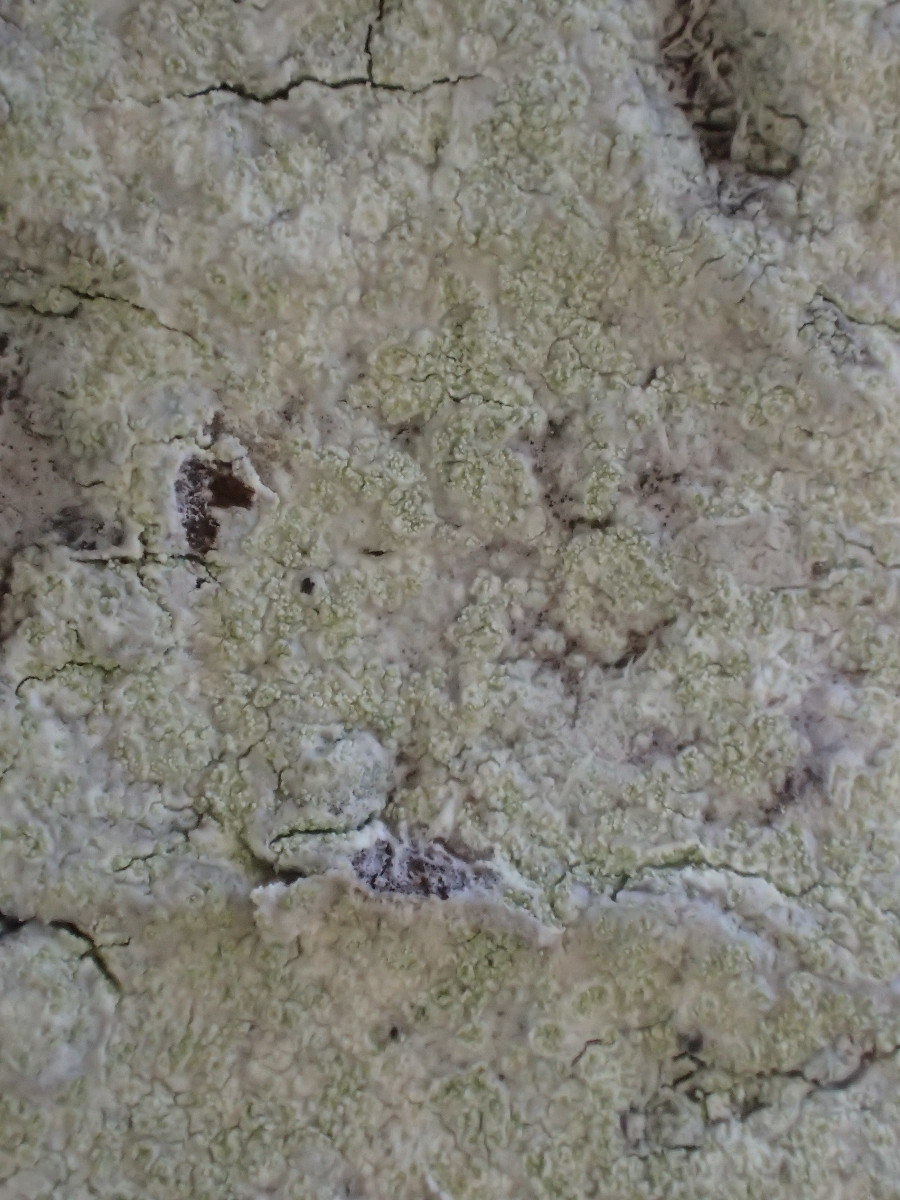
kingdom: Fungi
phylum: Ascomycota
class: Lecanoromycetes
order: Lecanorales
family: Lecanoraceae
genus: Lecanora
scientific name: Lecanora expallens
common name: bleggul kantskivelav
